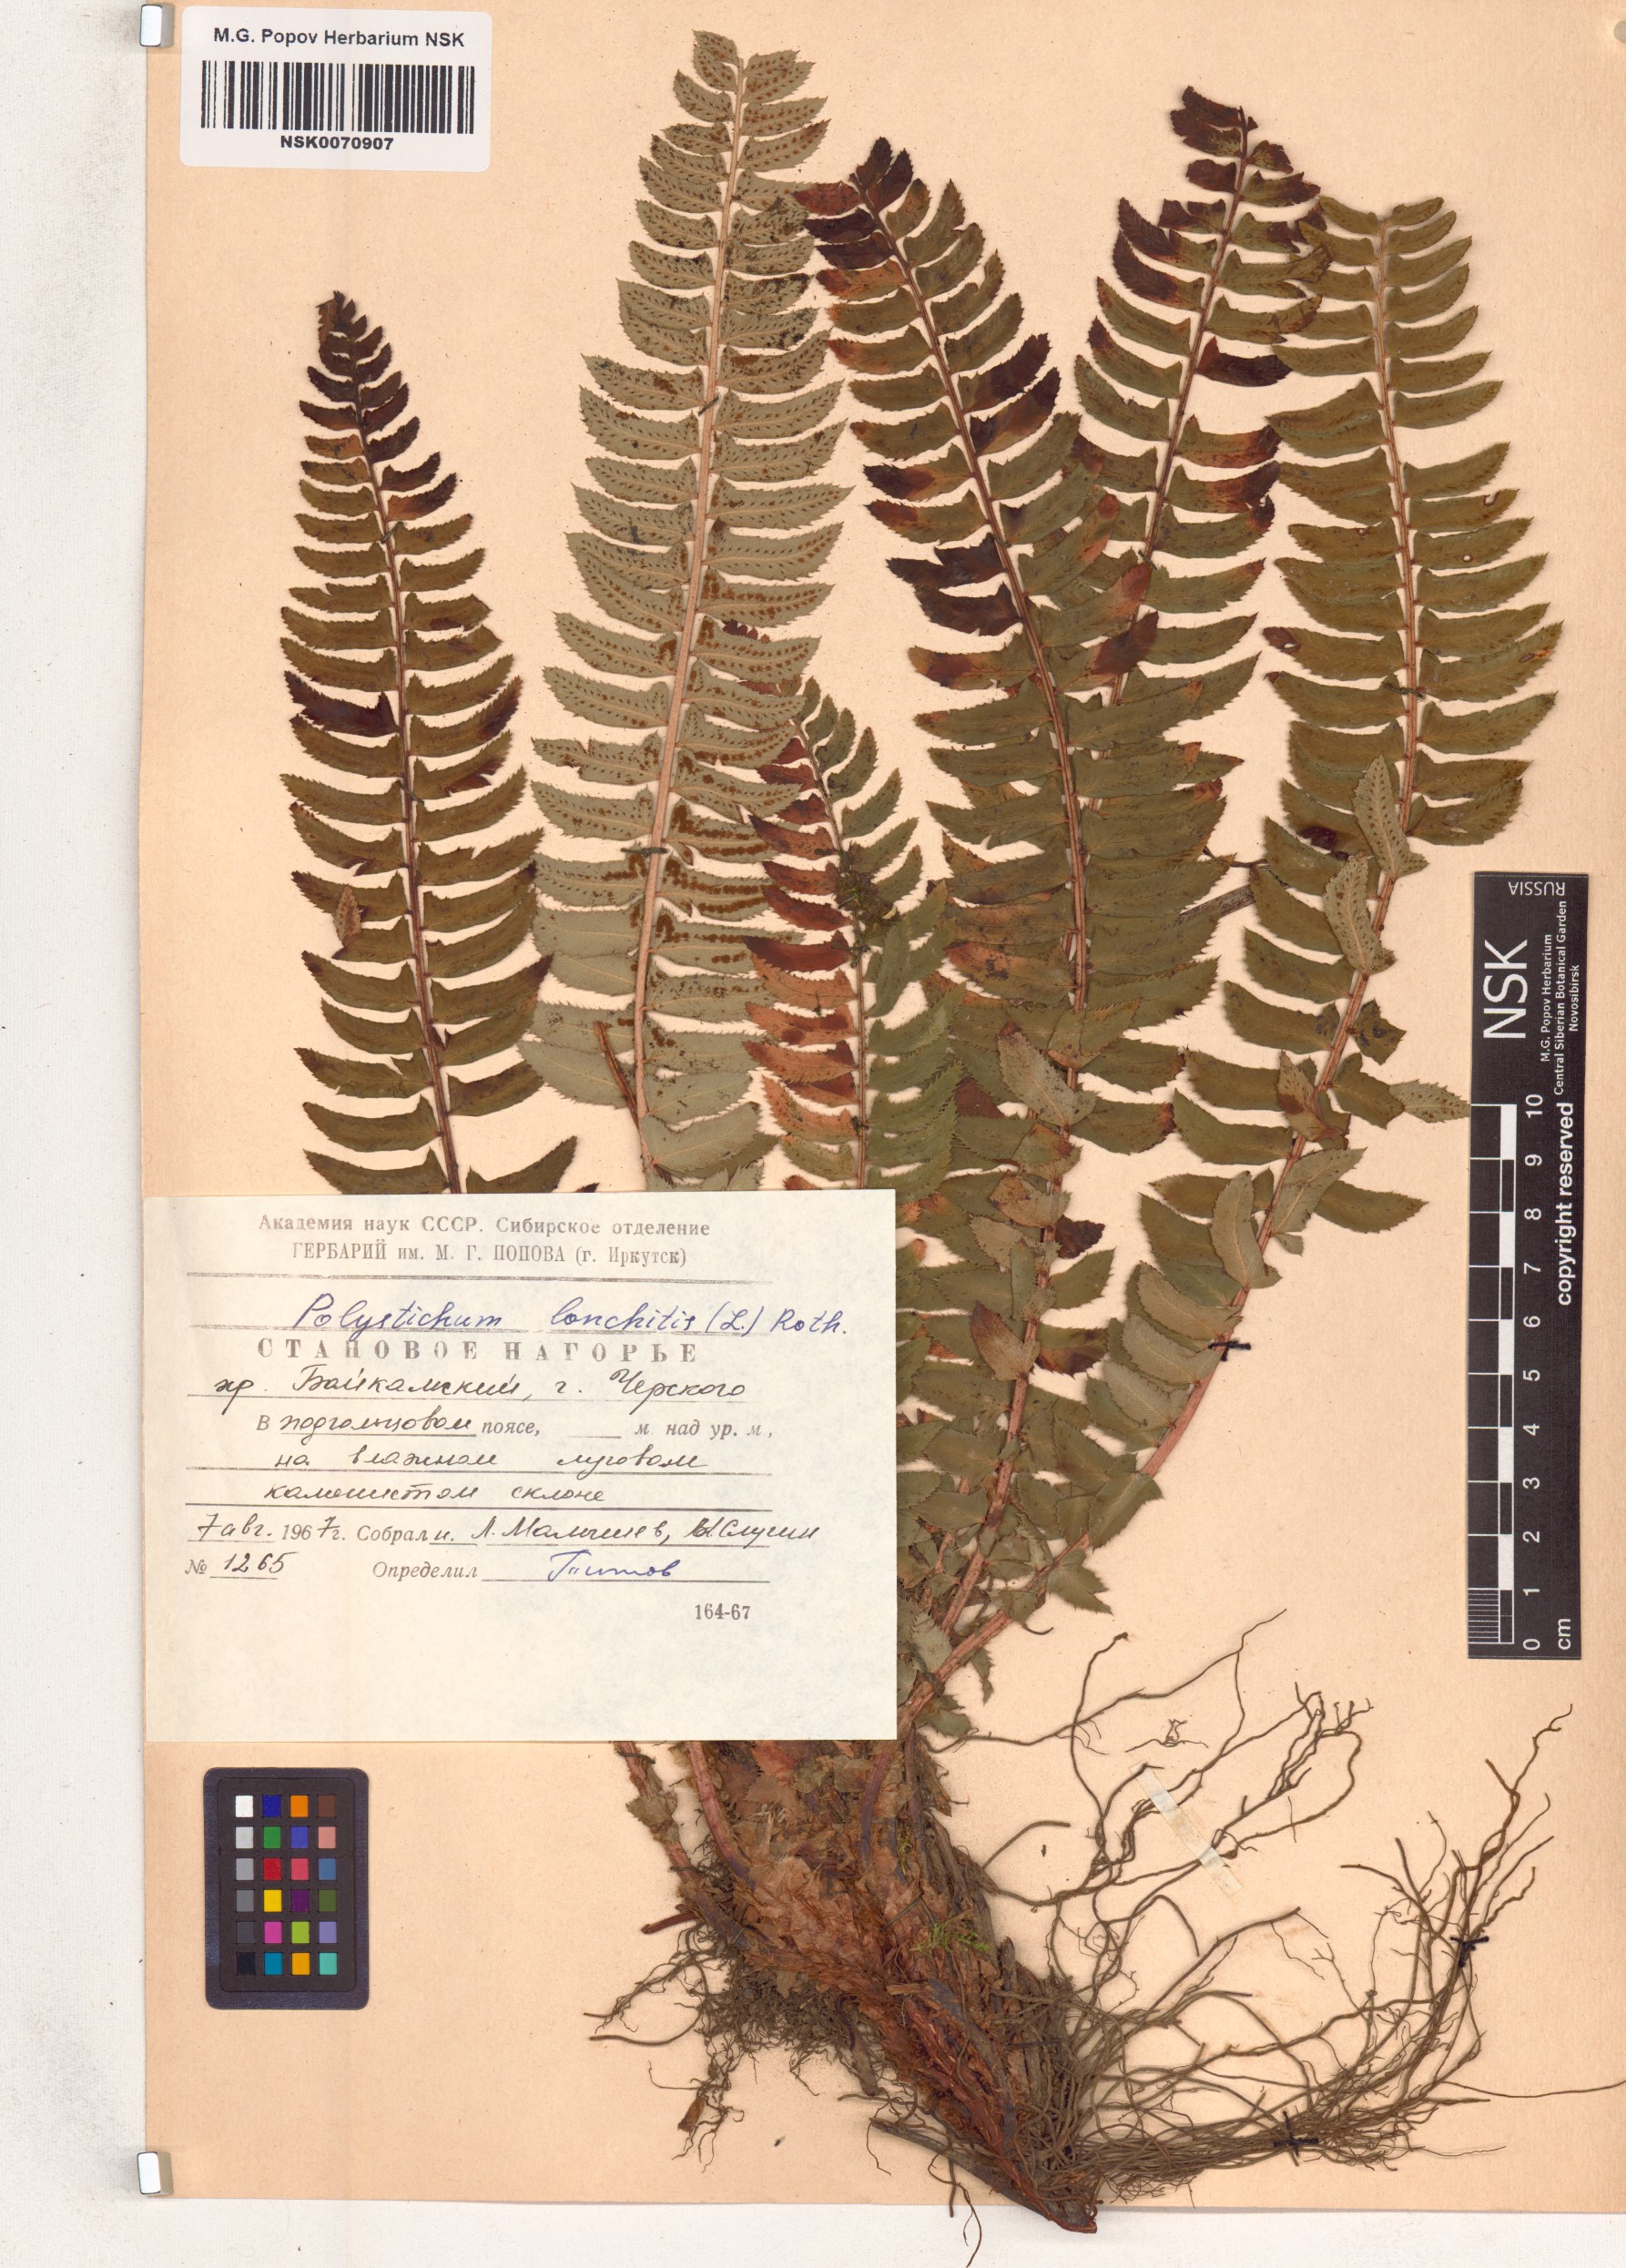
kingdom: Plantae
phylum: Tracheophyta
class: Polypodiopsida
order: Polypodiales
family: Dryopteridaceae
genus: Polystichum
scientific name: Polystichum lonchitis
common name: Holly fern
